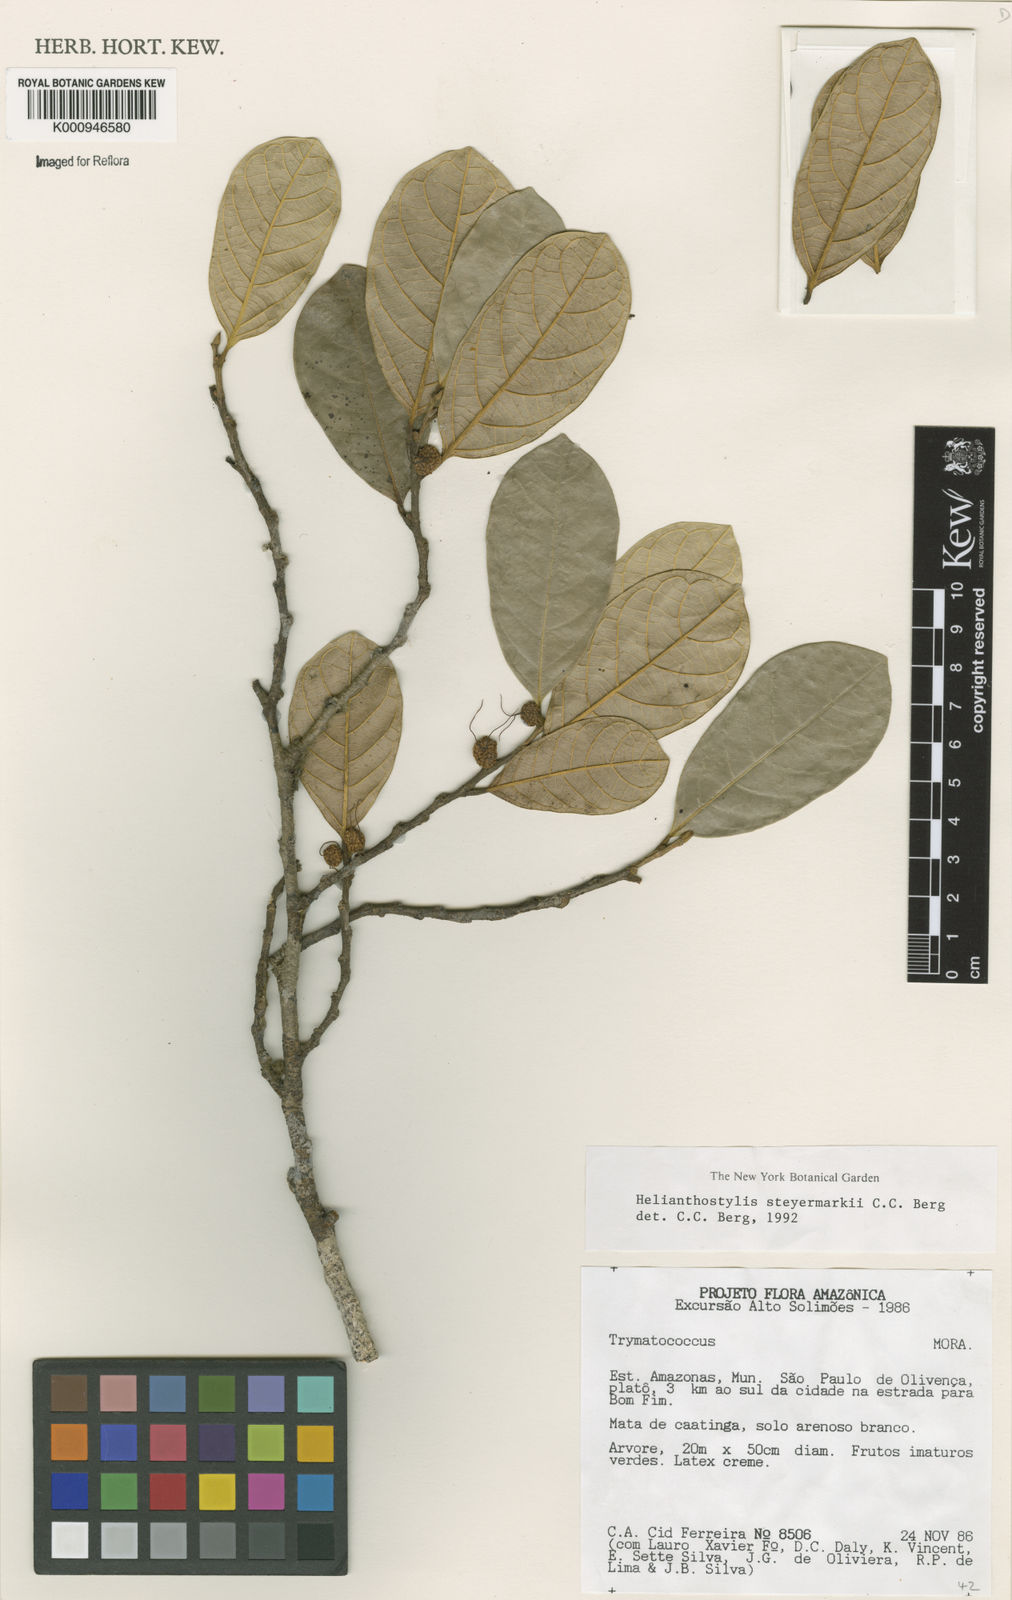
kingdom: Plantae
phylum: Tracheophyta
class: Magnoliopsida
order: Rosales
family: Moraceae
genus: Brosimum
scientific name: Brosimum steyermarkii
